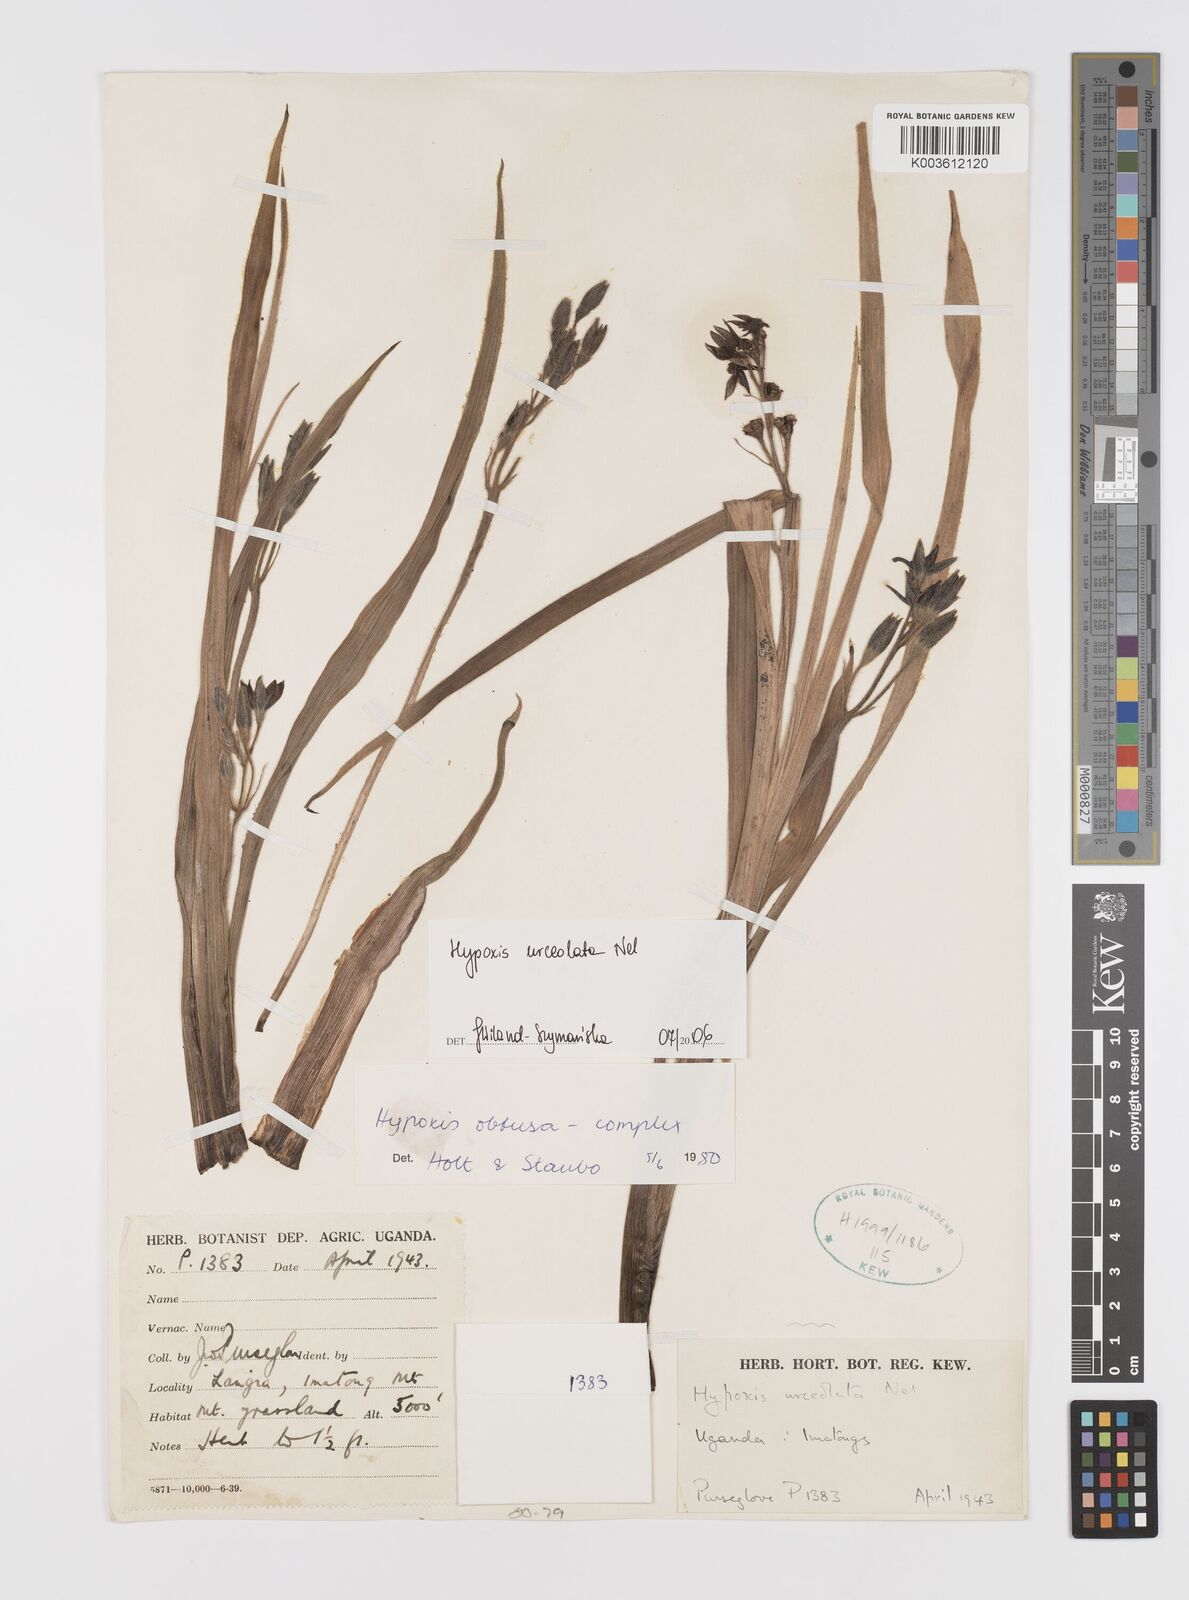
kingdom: Plantae
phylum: Tracheophyta
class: Liliopsida
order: Asparagales
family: Hypoxidaceae
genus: Hypoxis
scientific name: Hypoxis urceolata
